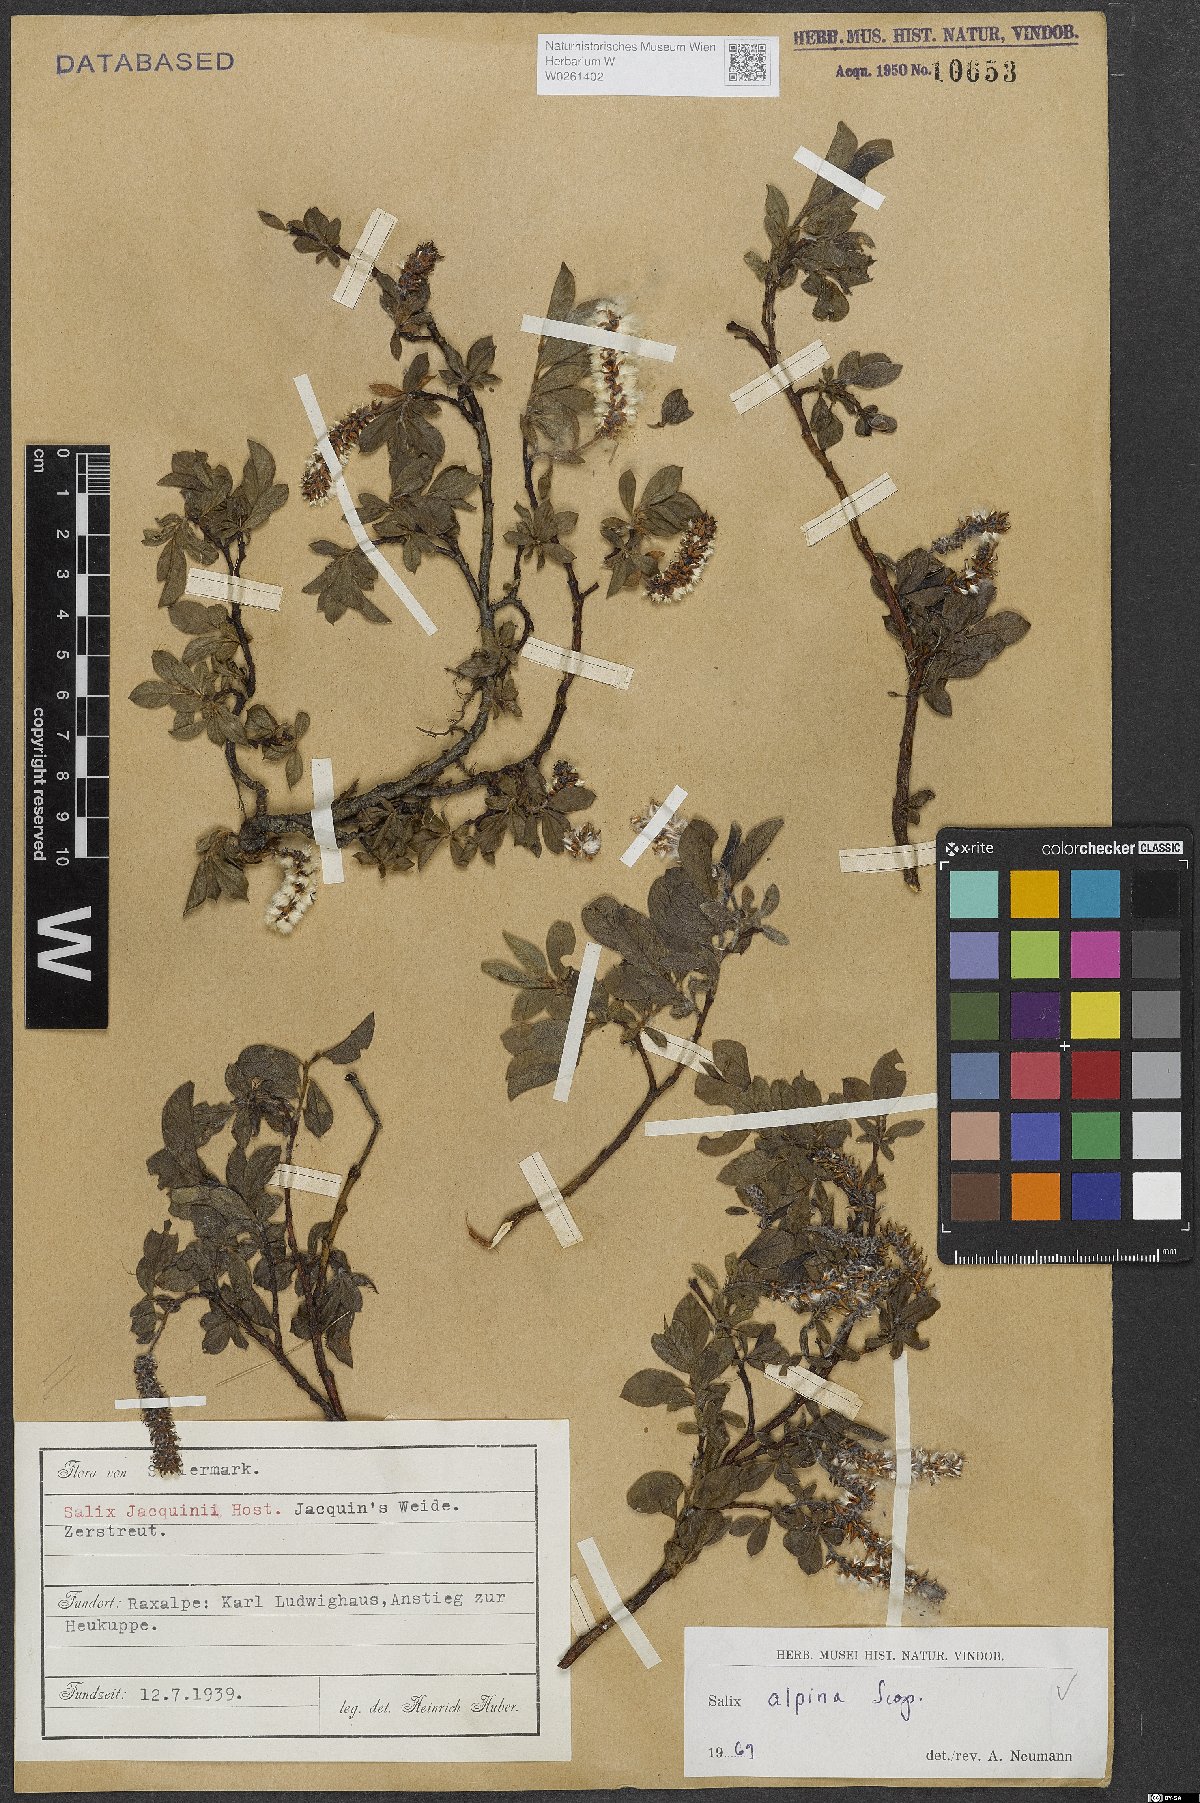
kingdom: Plantae
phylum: Tracheophyta
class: Magnoliopsida
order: Malpighiales
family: Salicaceae
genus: Salix
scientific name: Salix alpina
